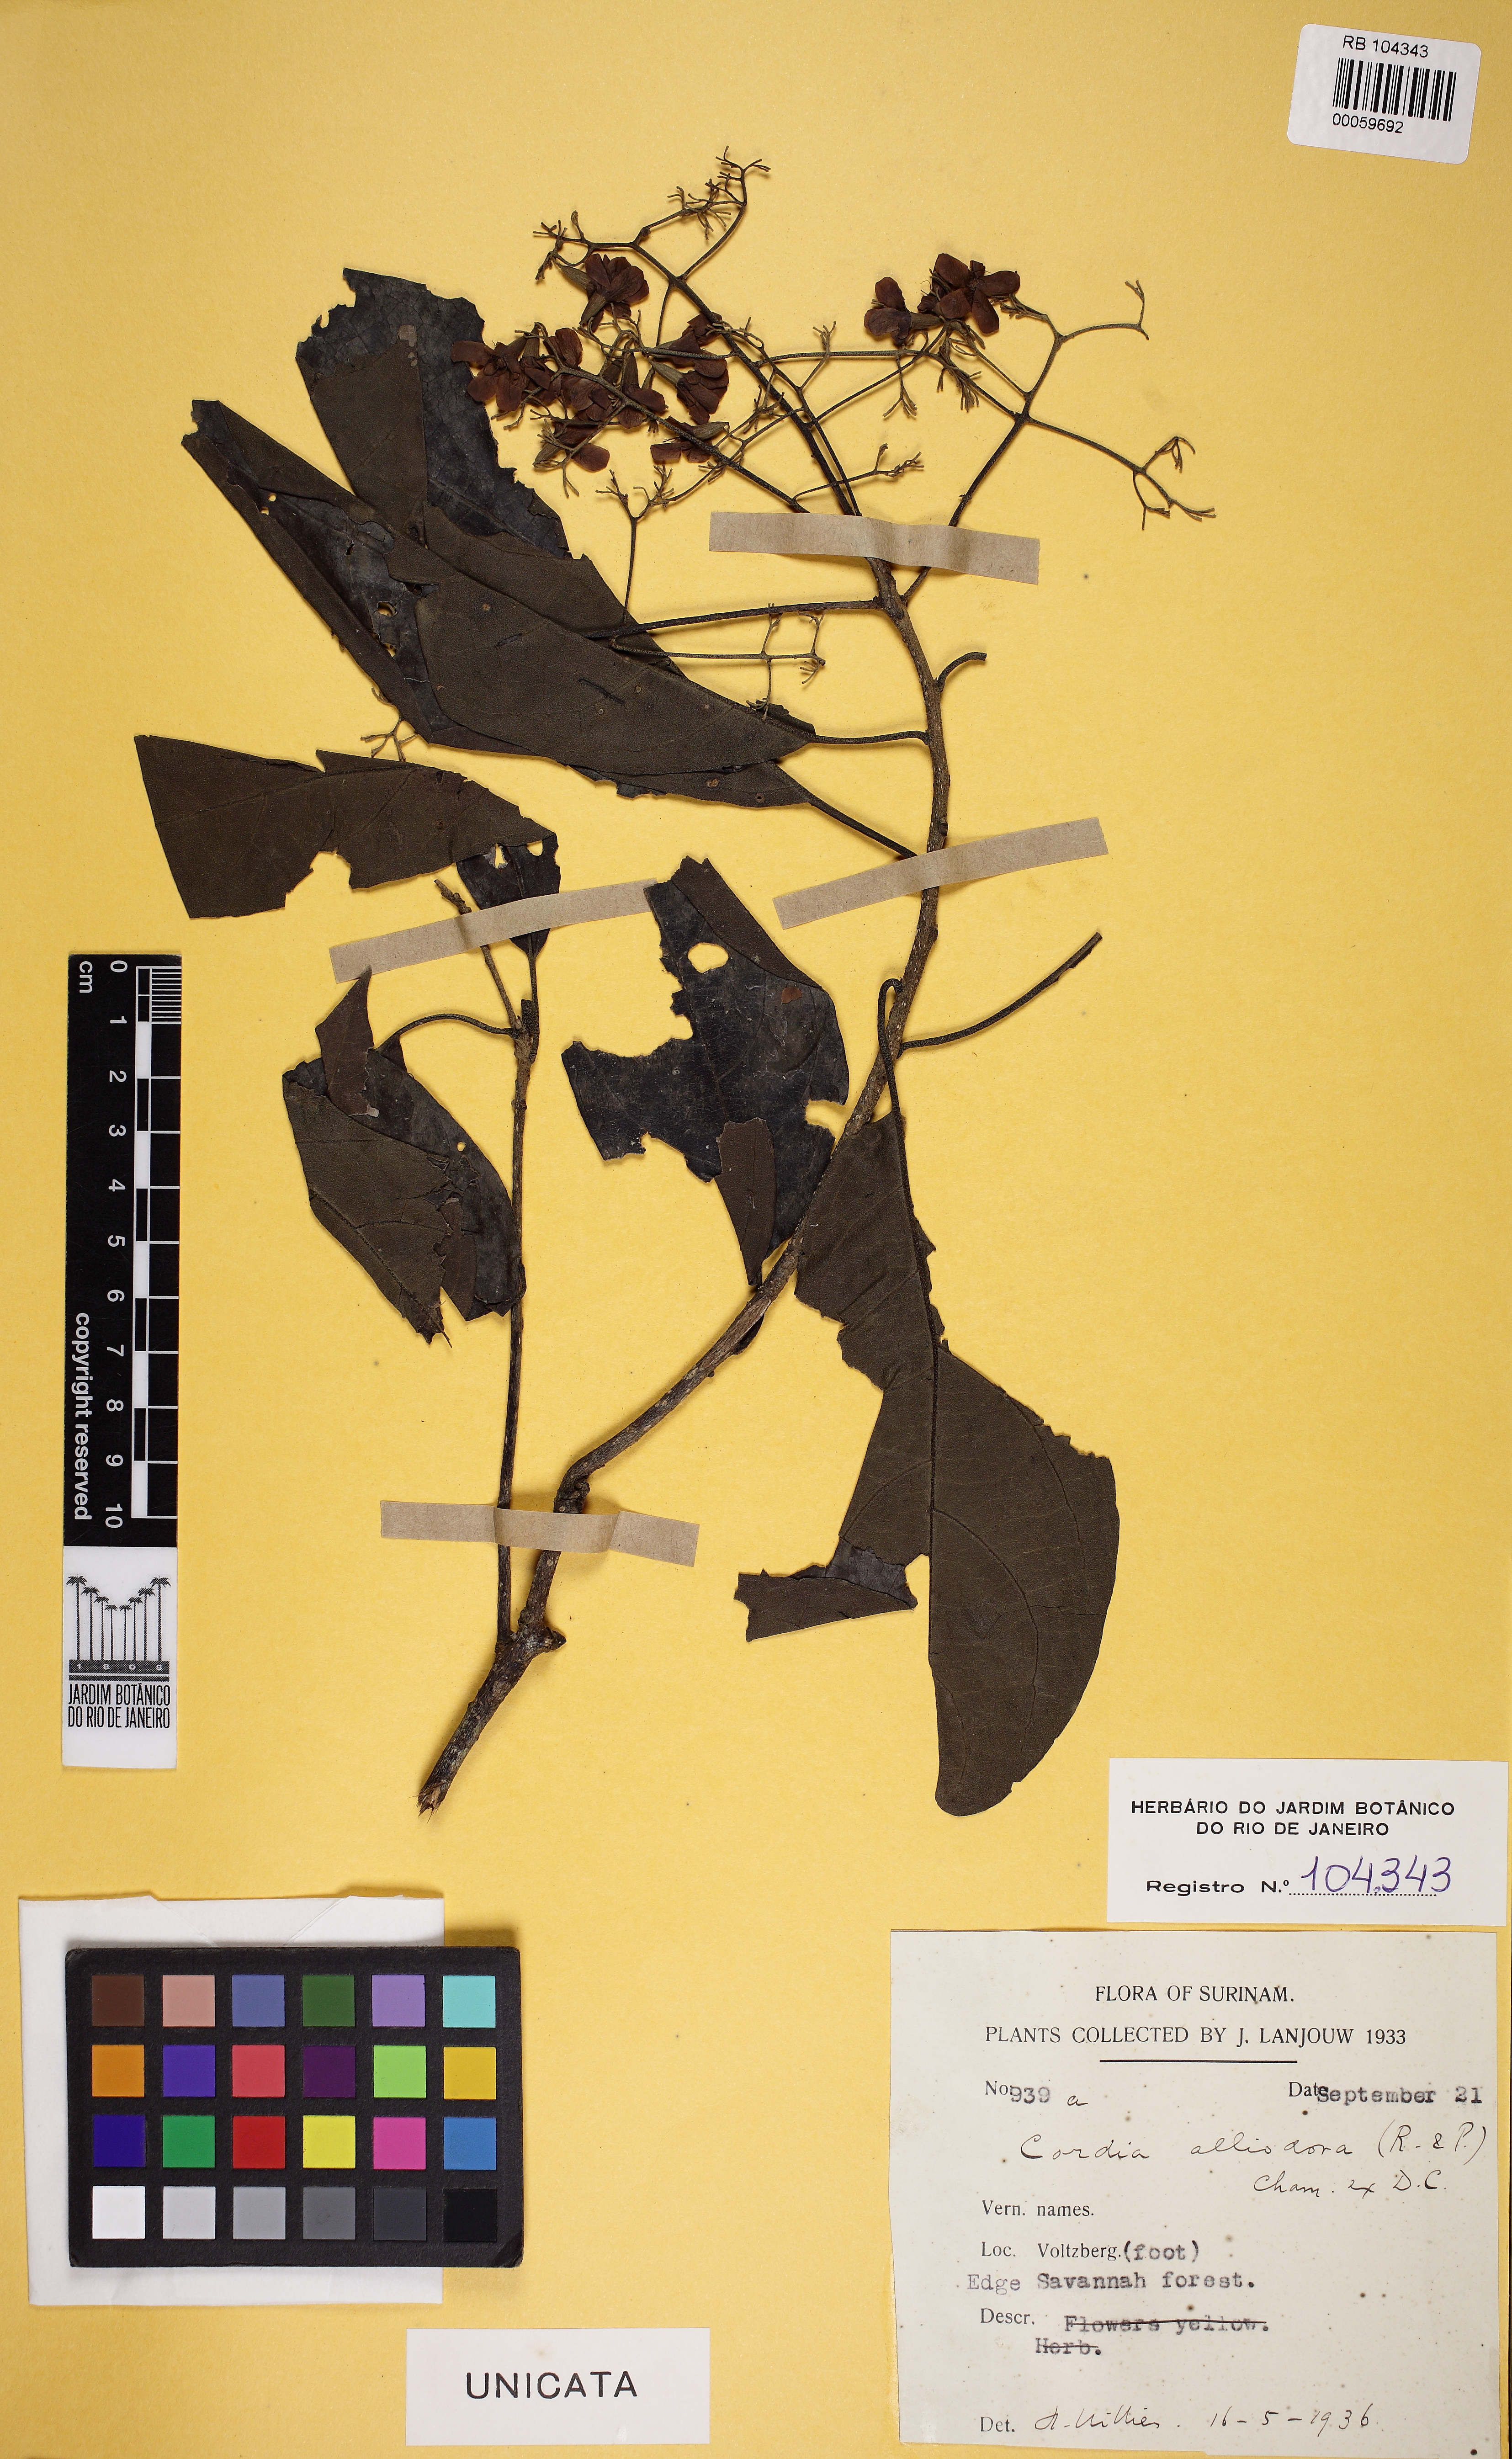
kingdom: Plantae
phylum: Tracheophyta
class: Magnoliopsida
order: Boraginales
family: Cordiaceae
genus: Cordia
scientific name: Cordia alliodora
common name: Spanish elm
